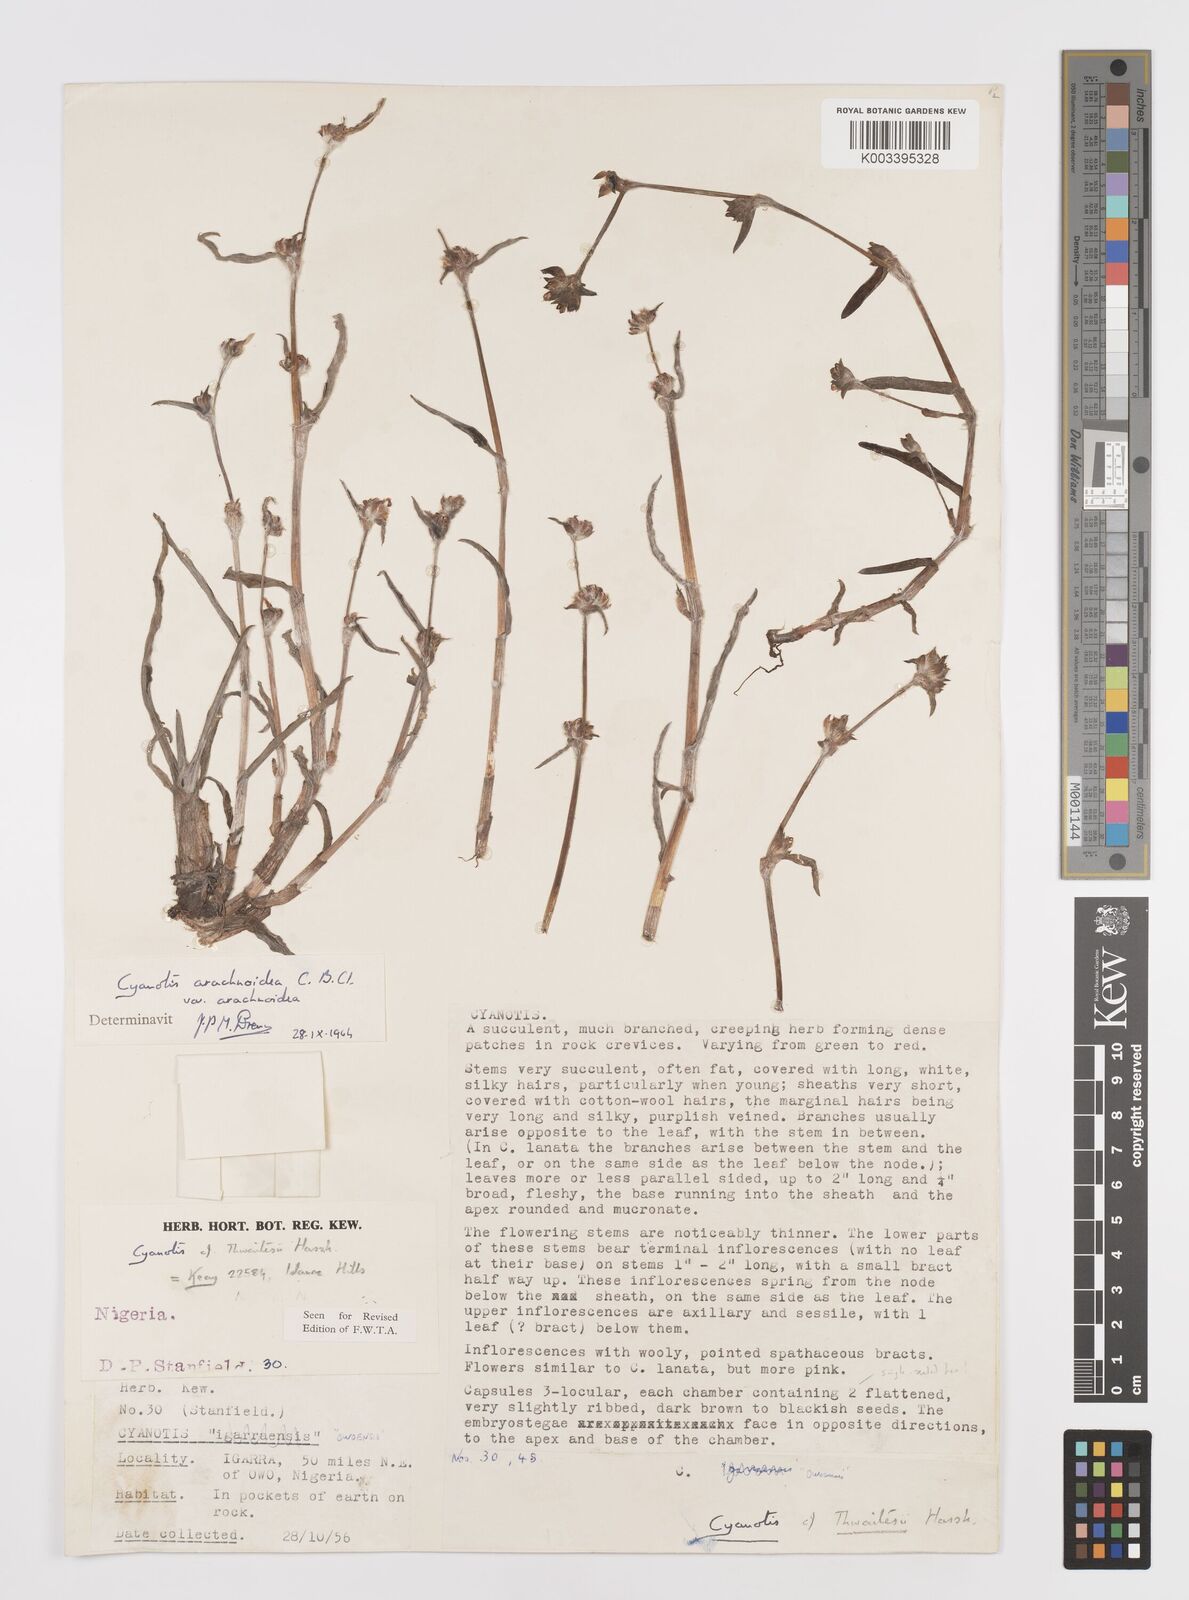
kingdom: Plantae
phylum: Tracheophyta
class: Liliopsida
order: Commelinales
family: Commelinaceae
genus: Cyanotis
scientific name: Cyanotis arachnoidea
